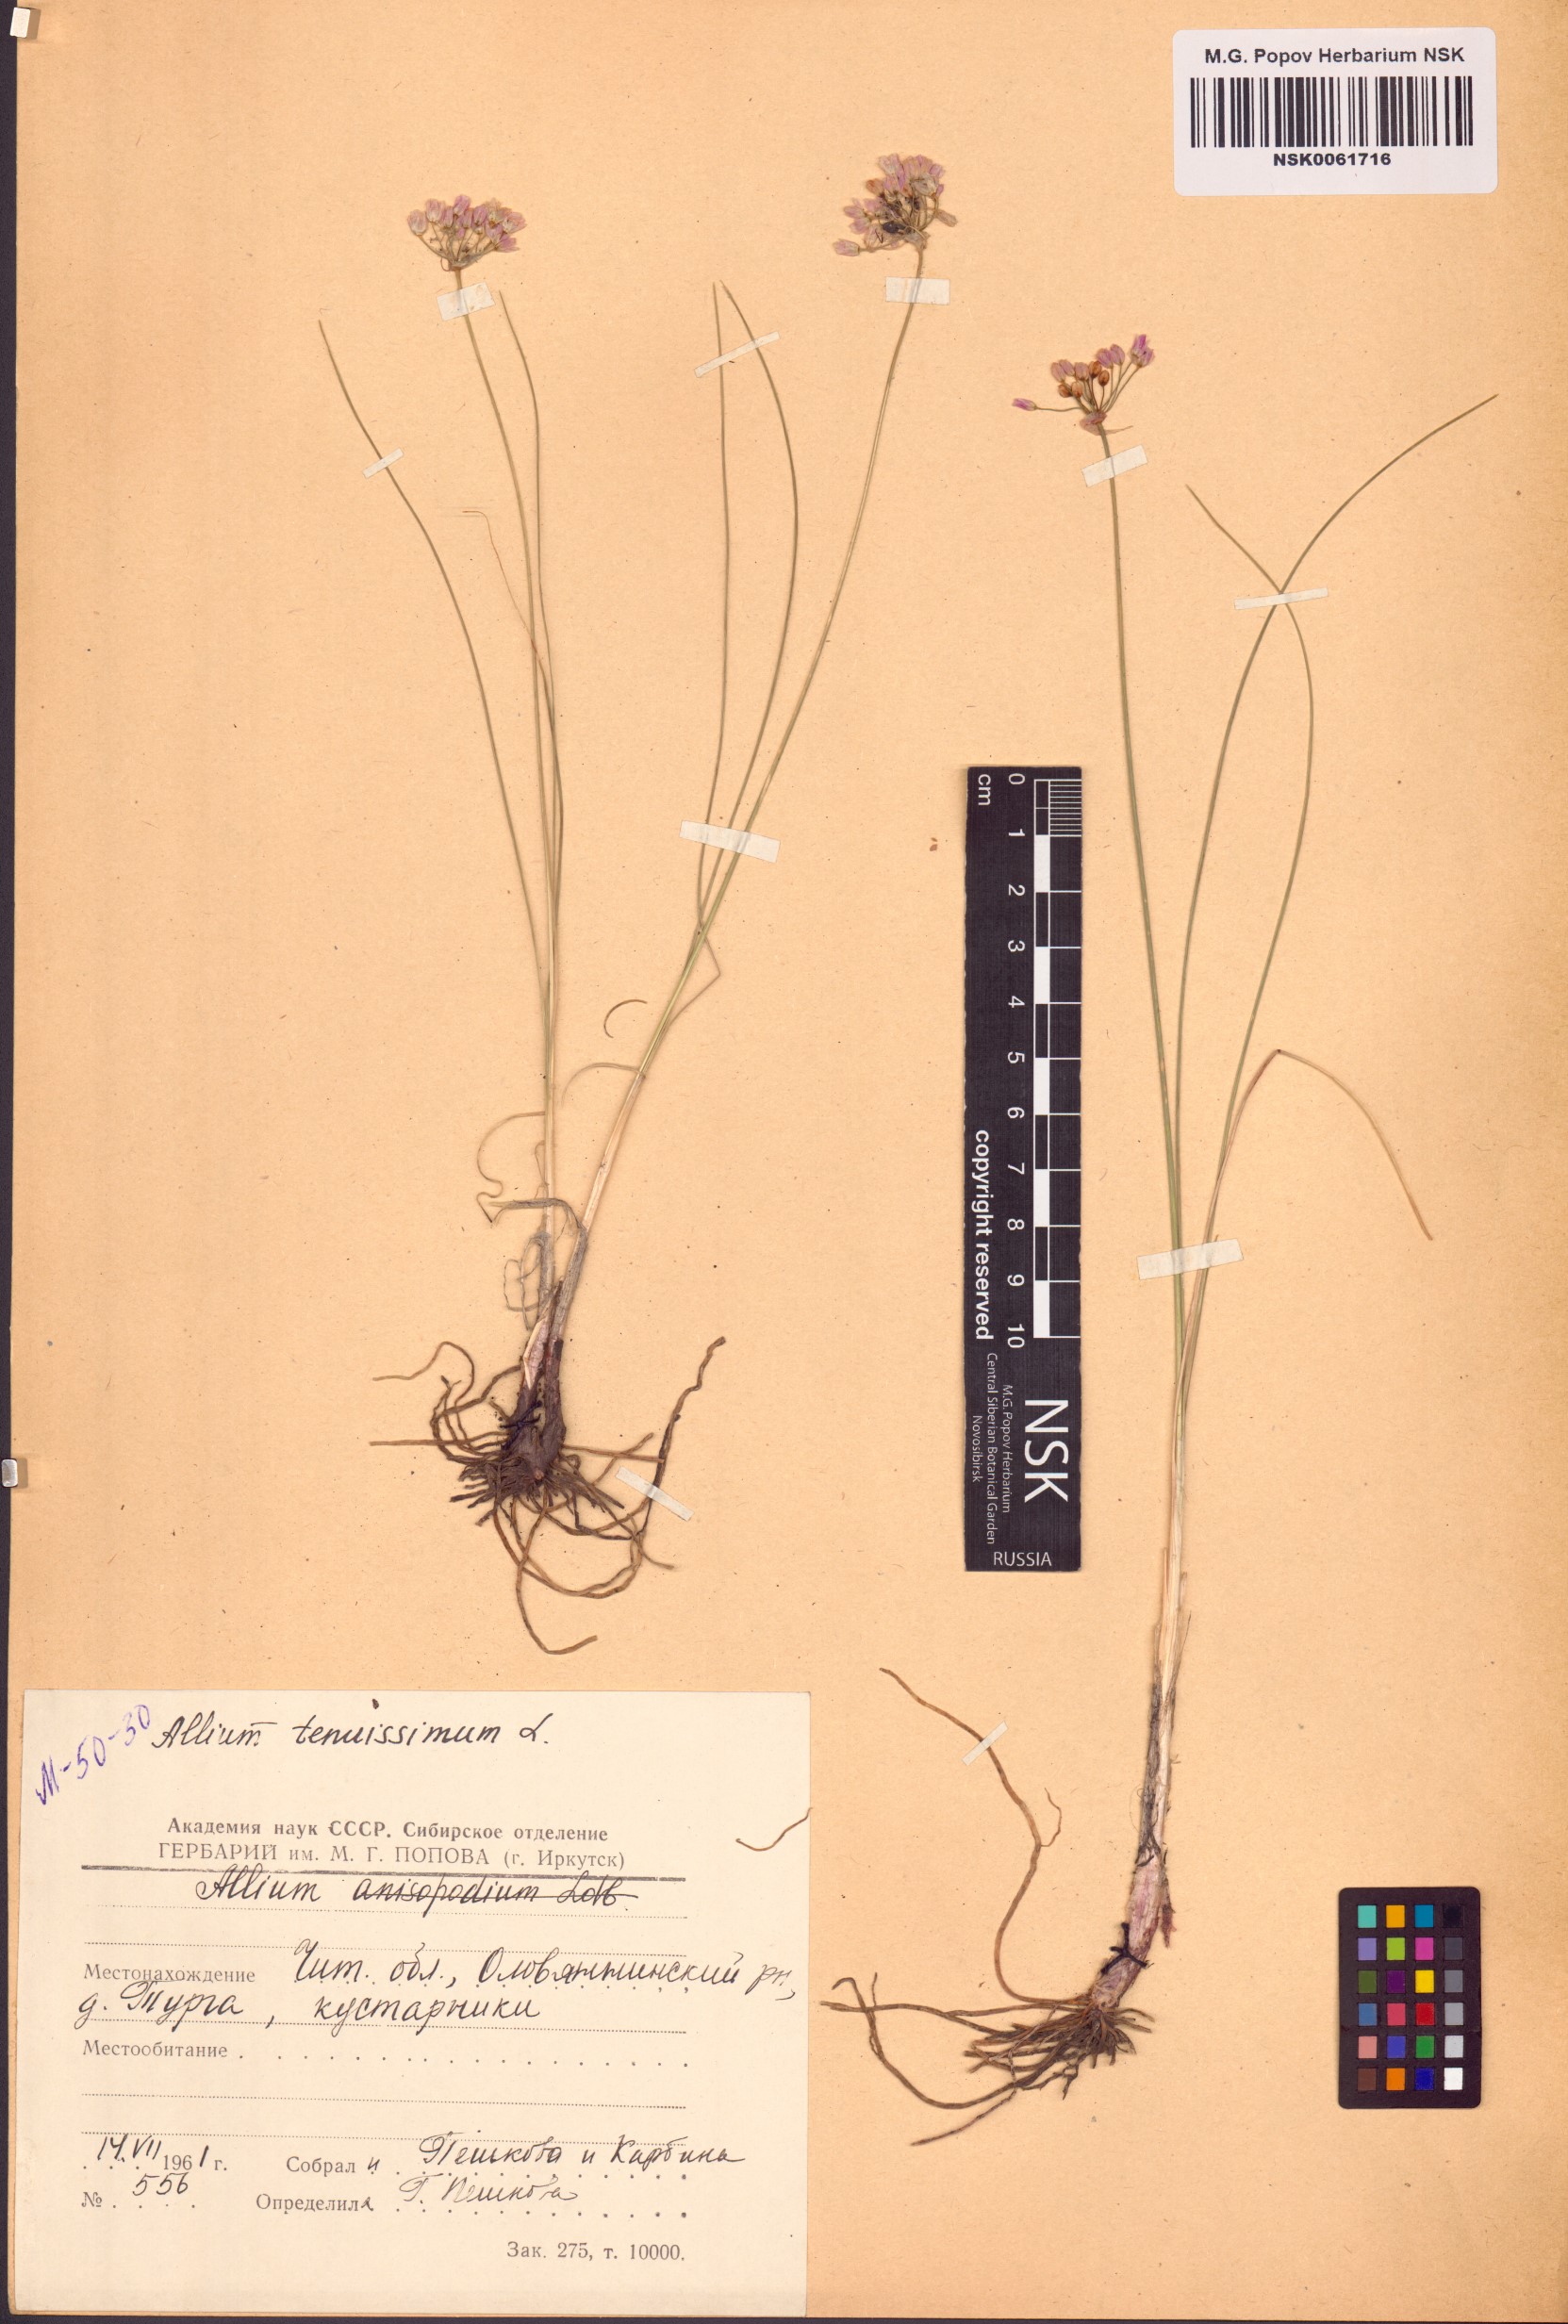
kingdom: Plantae
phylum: Tracheophyta
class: Liliopsida
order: Asparagales
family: Amaryllidaceae
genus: Allium
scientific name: Allium tenuissimum
